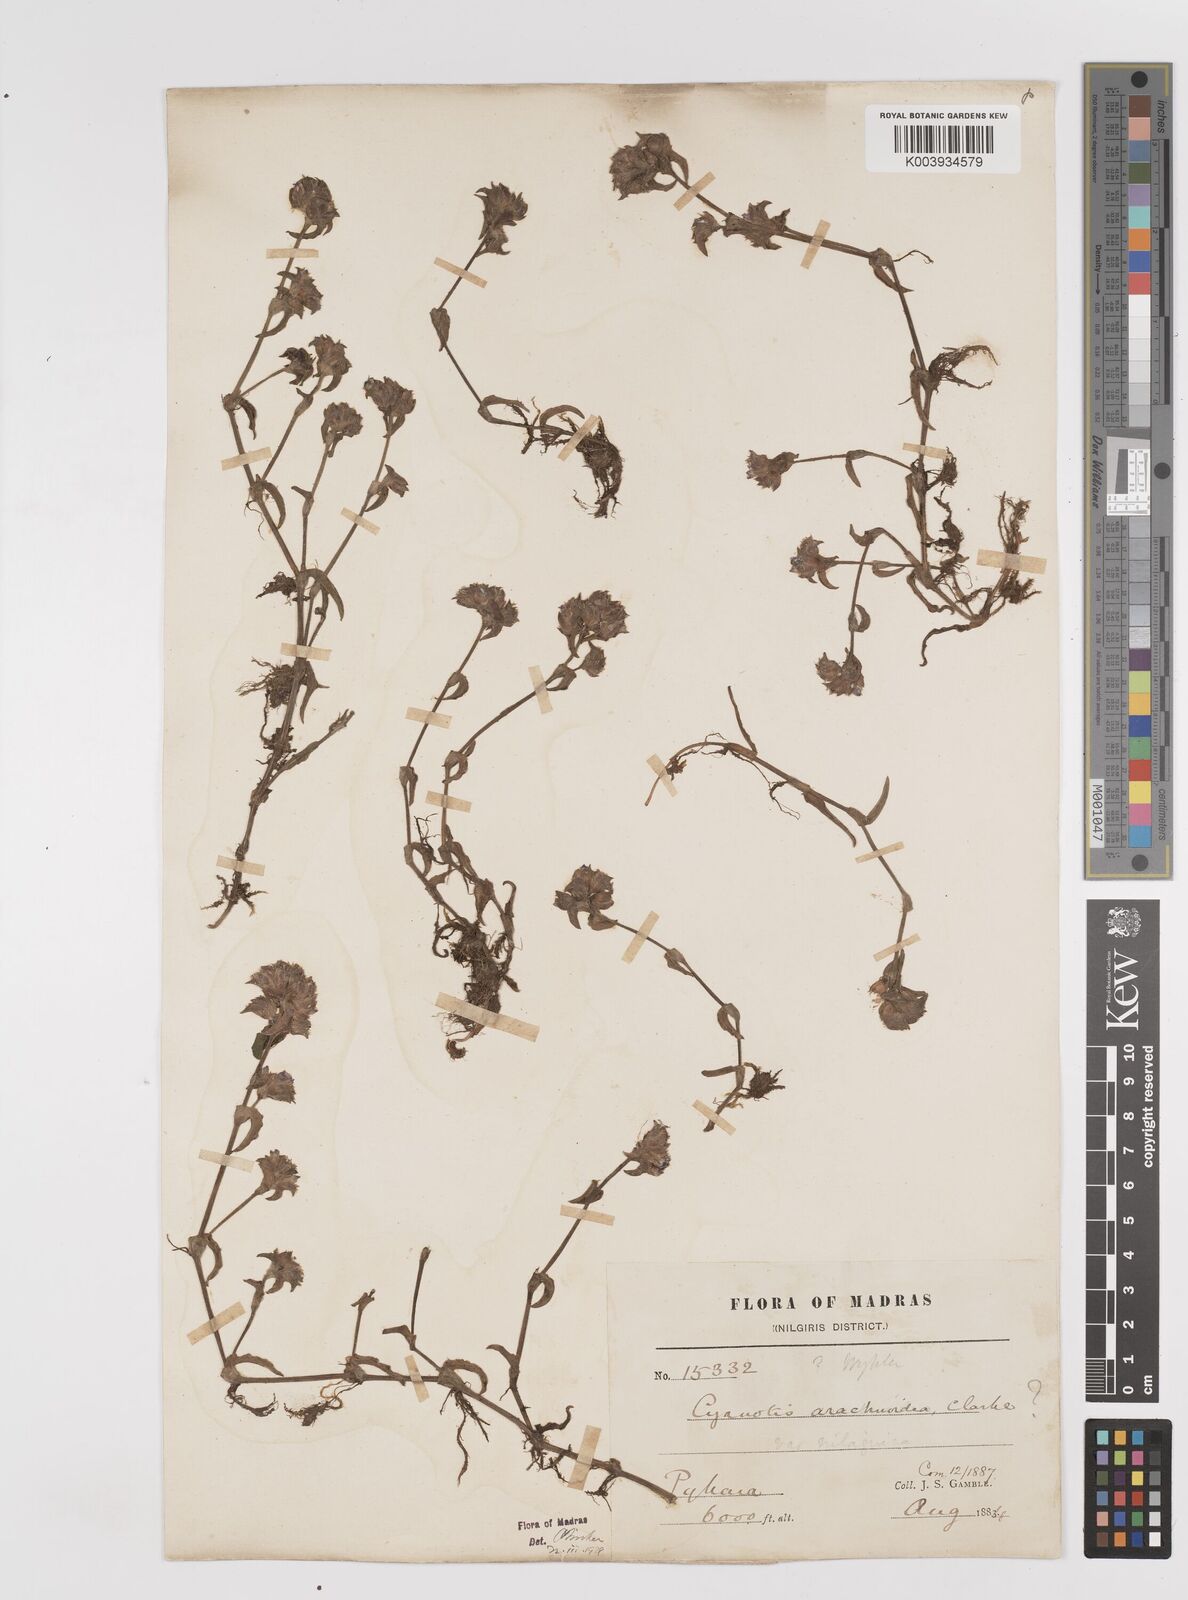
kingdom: Plantae
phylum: Tracheophyta
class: Liliopsida
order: Commelinales
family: Commelinaceae
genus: Cyanotis
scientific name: Cyanotis arachnoidea
